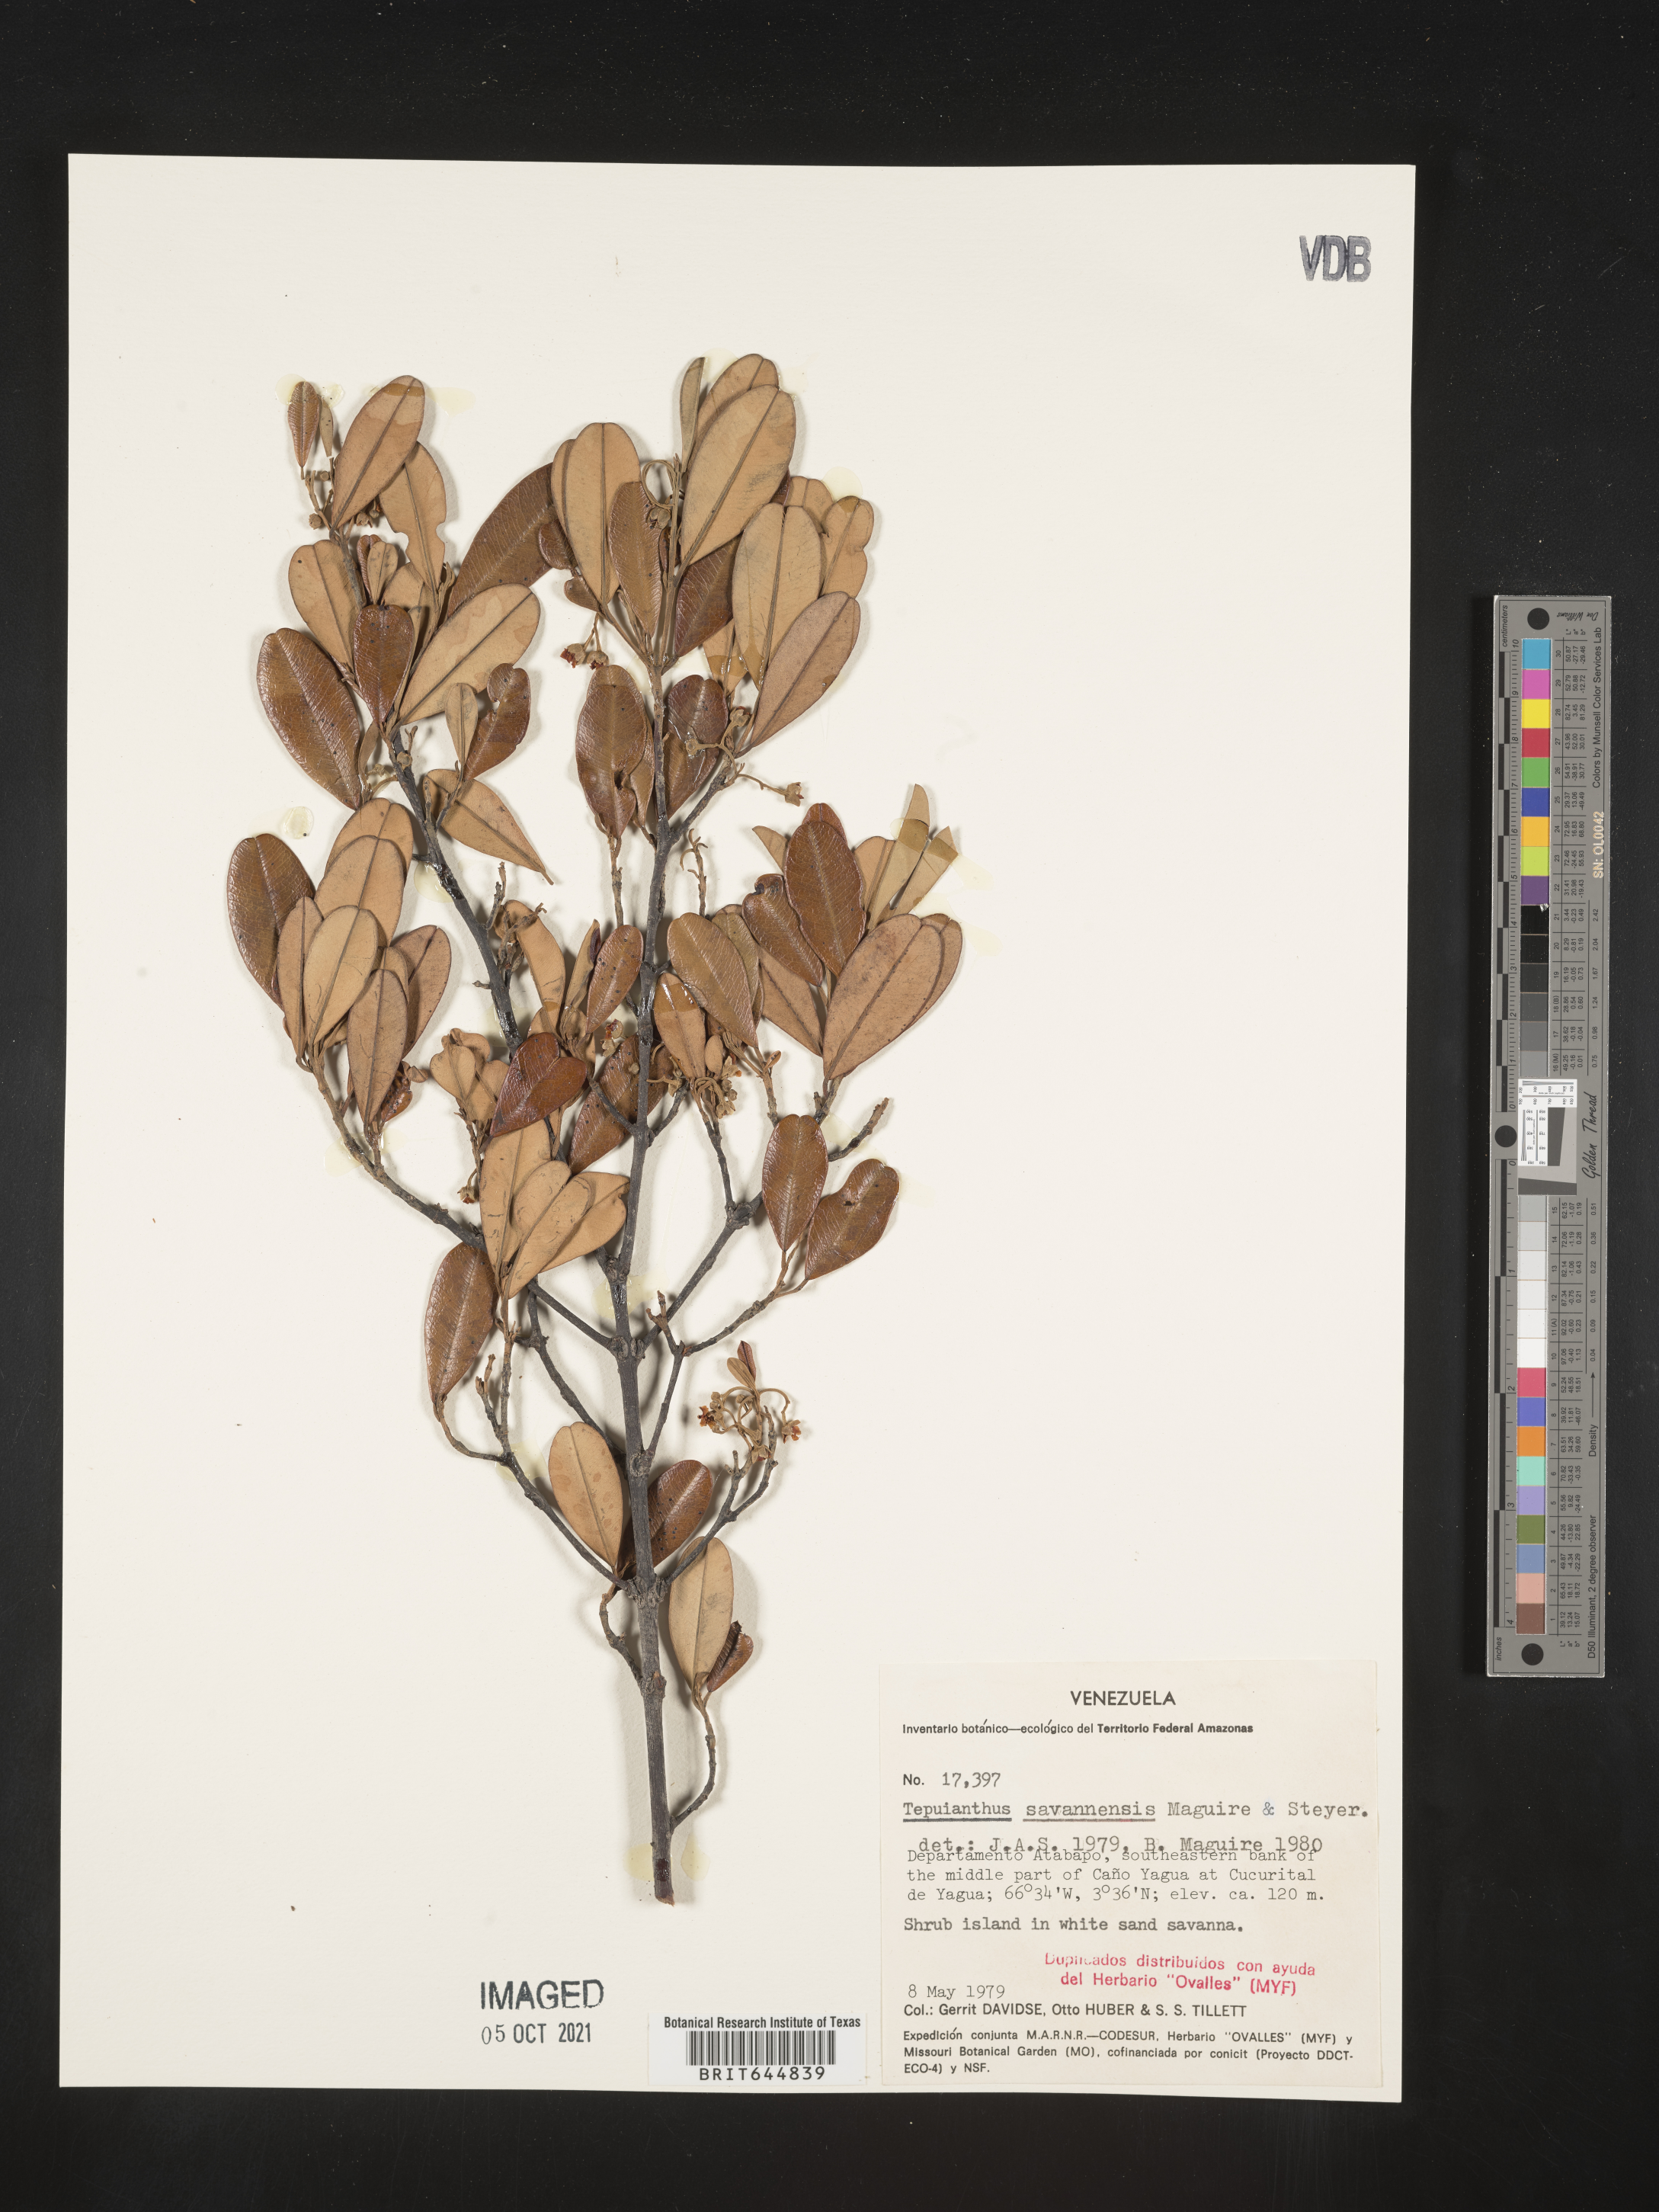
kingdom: Plantae
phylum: Tracheophyta
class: Magnoliopsida
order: Malvales
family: Thymelaeaceae
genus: Tepuianthus
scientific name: Tepuianthus savannensis
